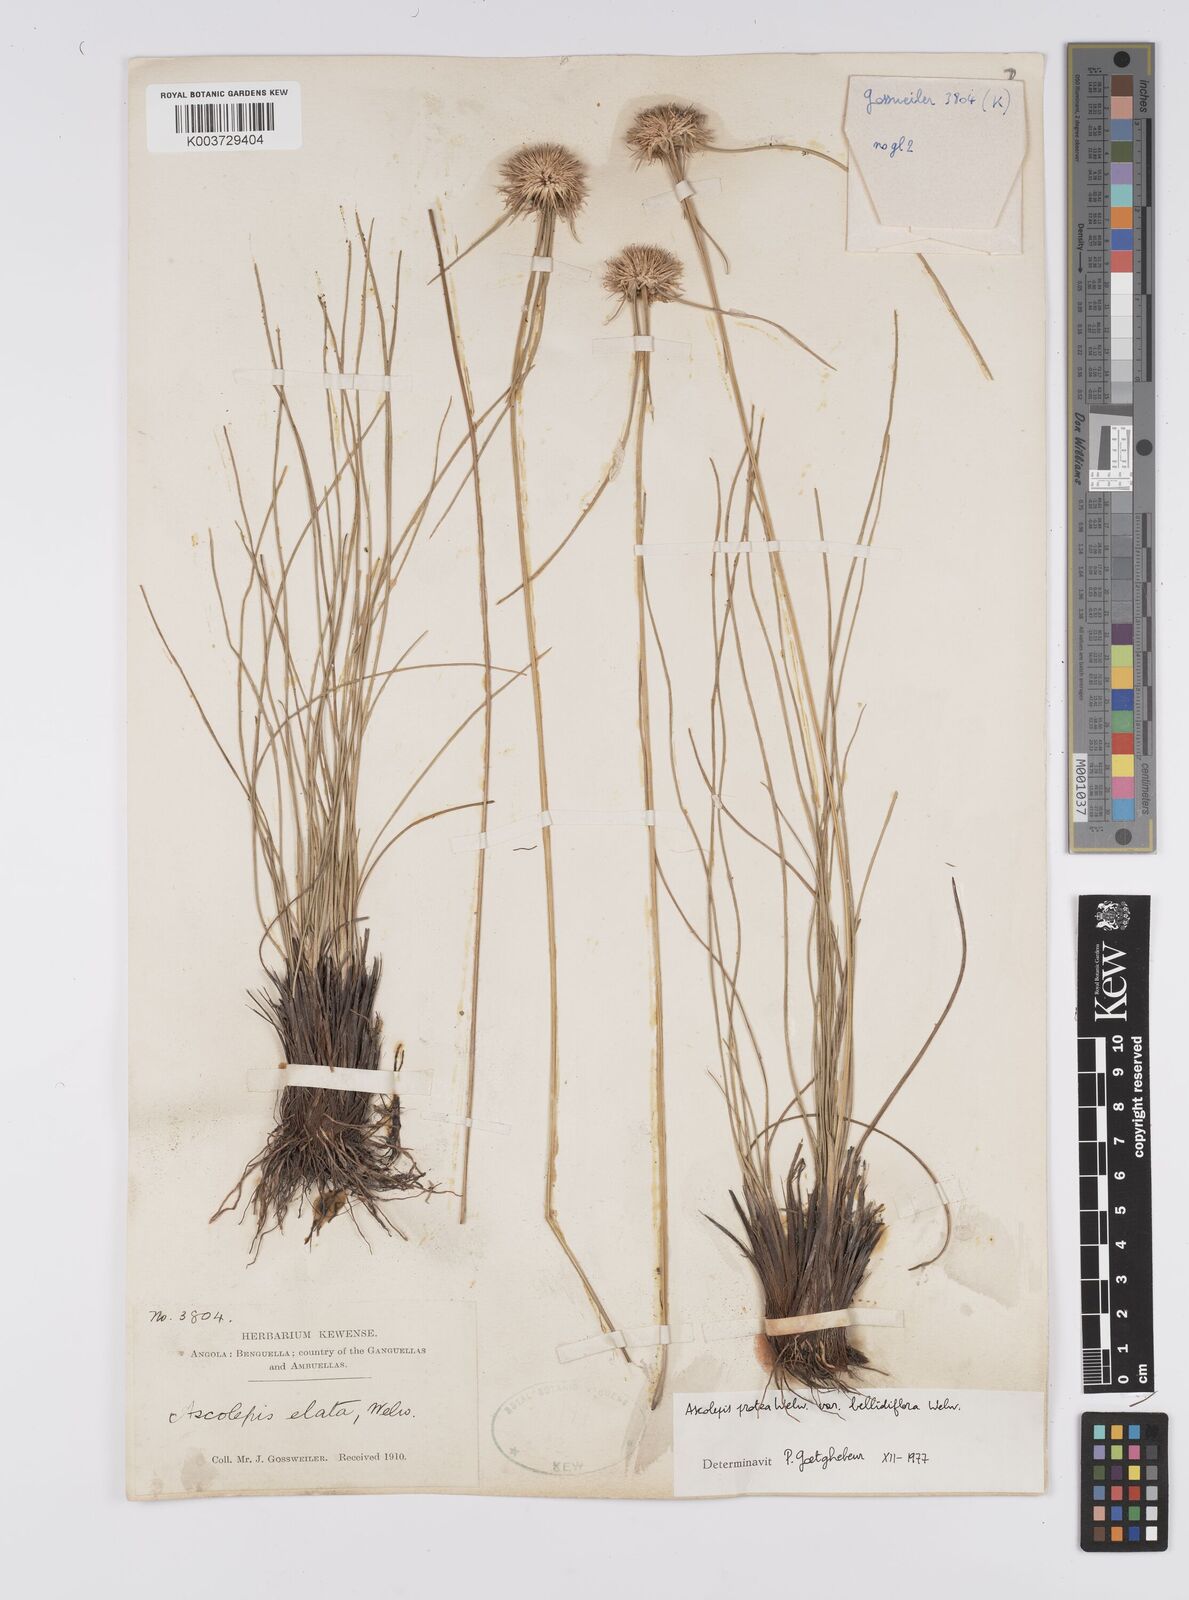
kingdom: Plantae
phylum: Tracheophyta
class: Liliopsida
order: Poales
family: Cyperaceae
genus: Cyperus
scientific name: Cyperus proteus
